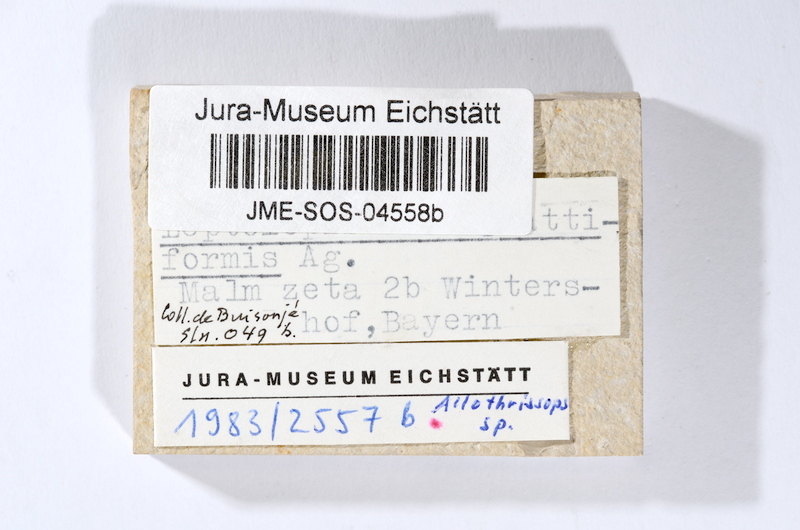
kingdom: Animalia
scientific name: Animalia
